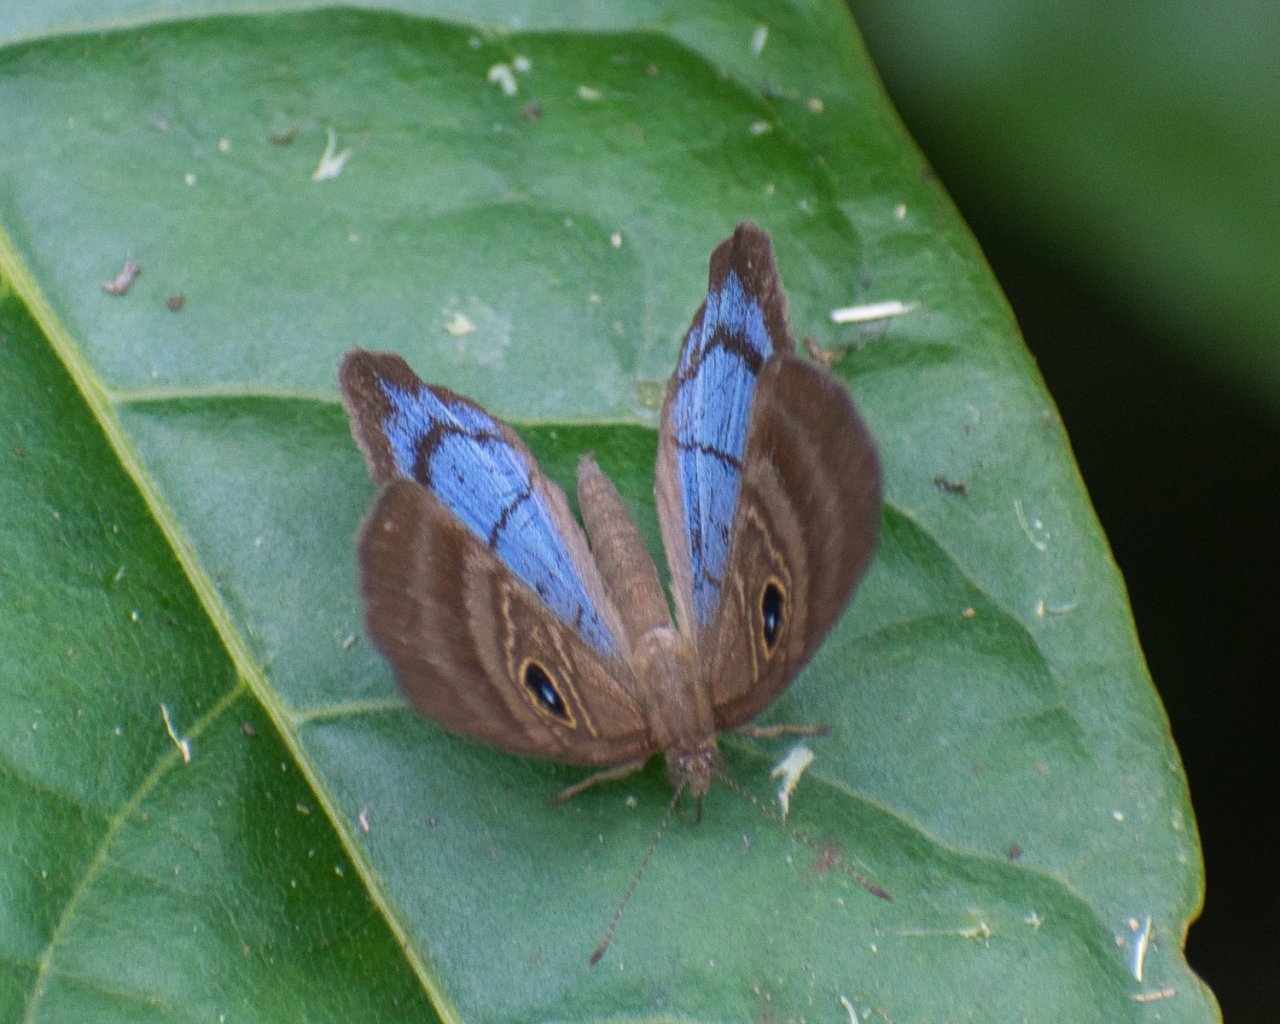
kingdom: Animalia
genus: Mesosemia
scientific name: Mesosemia lamachus
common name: Purple-washed Eyed-Metalmark
